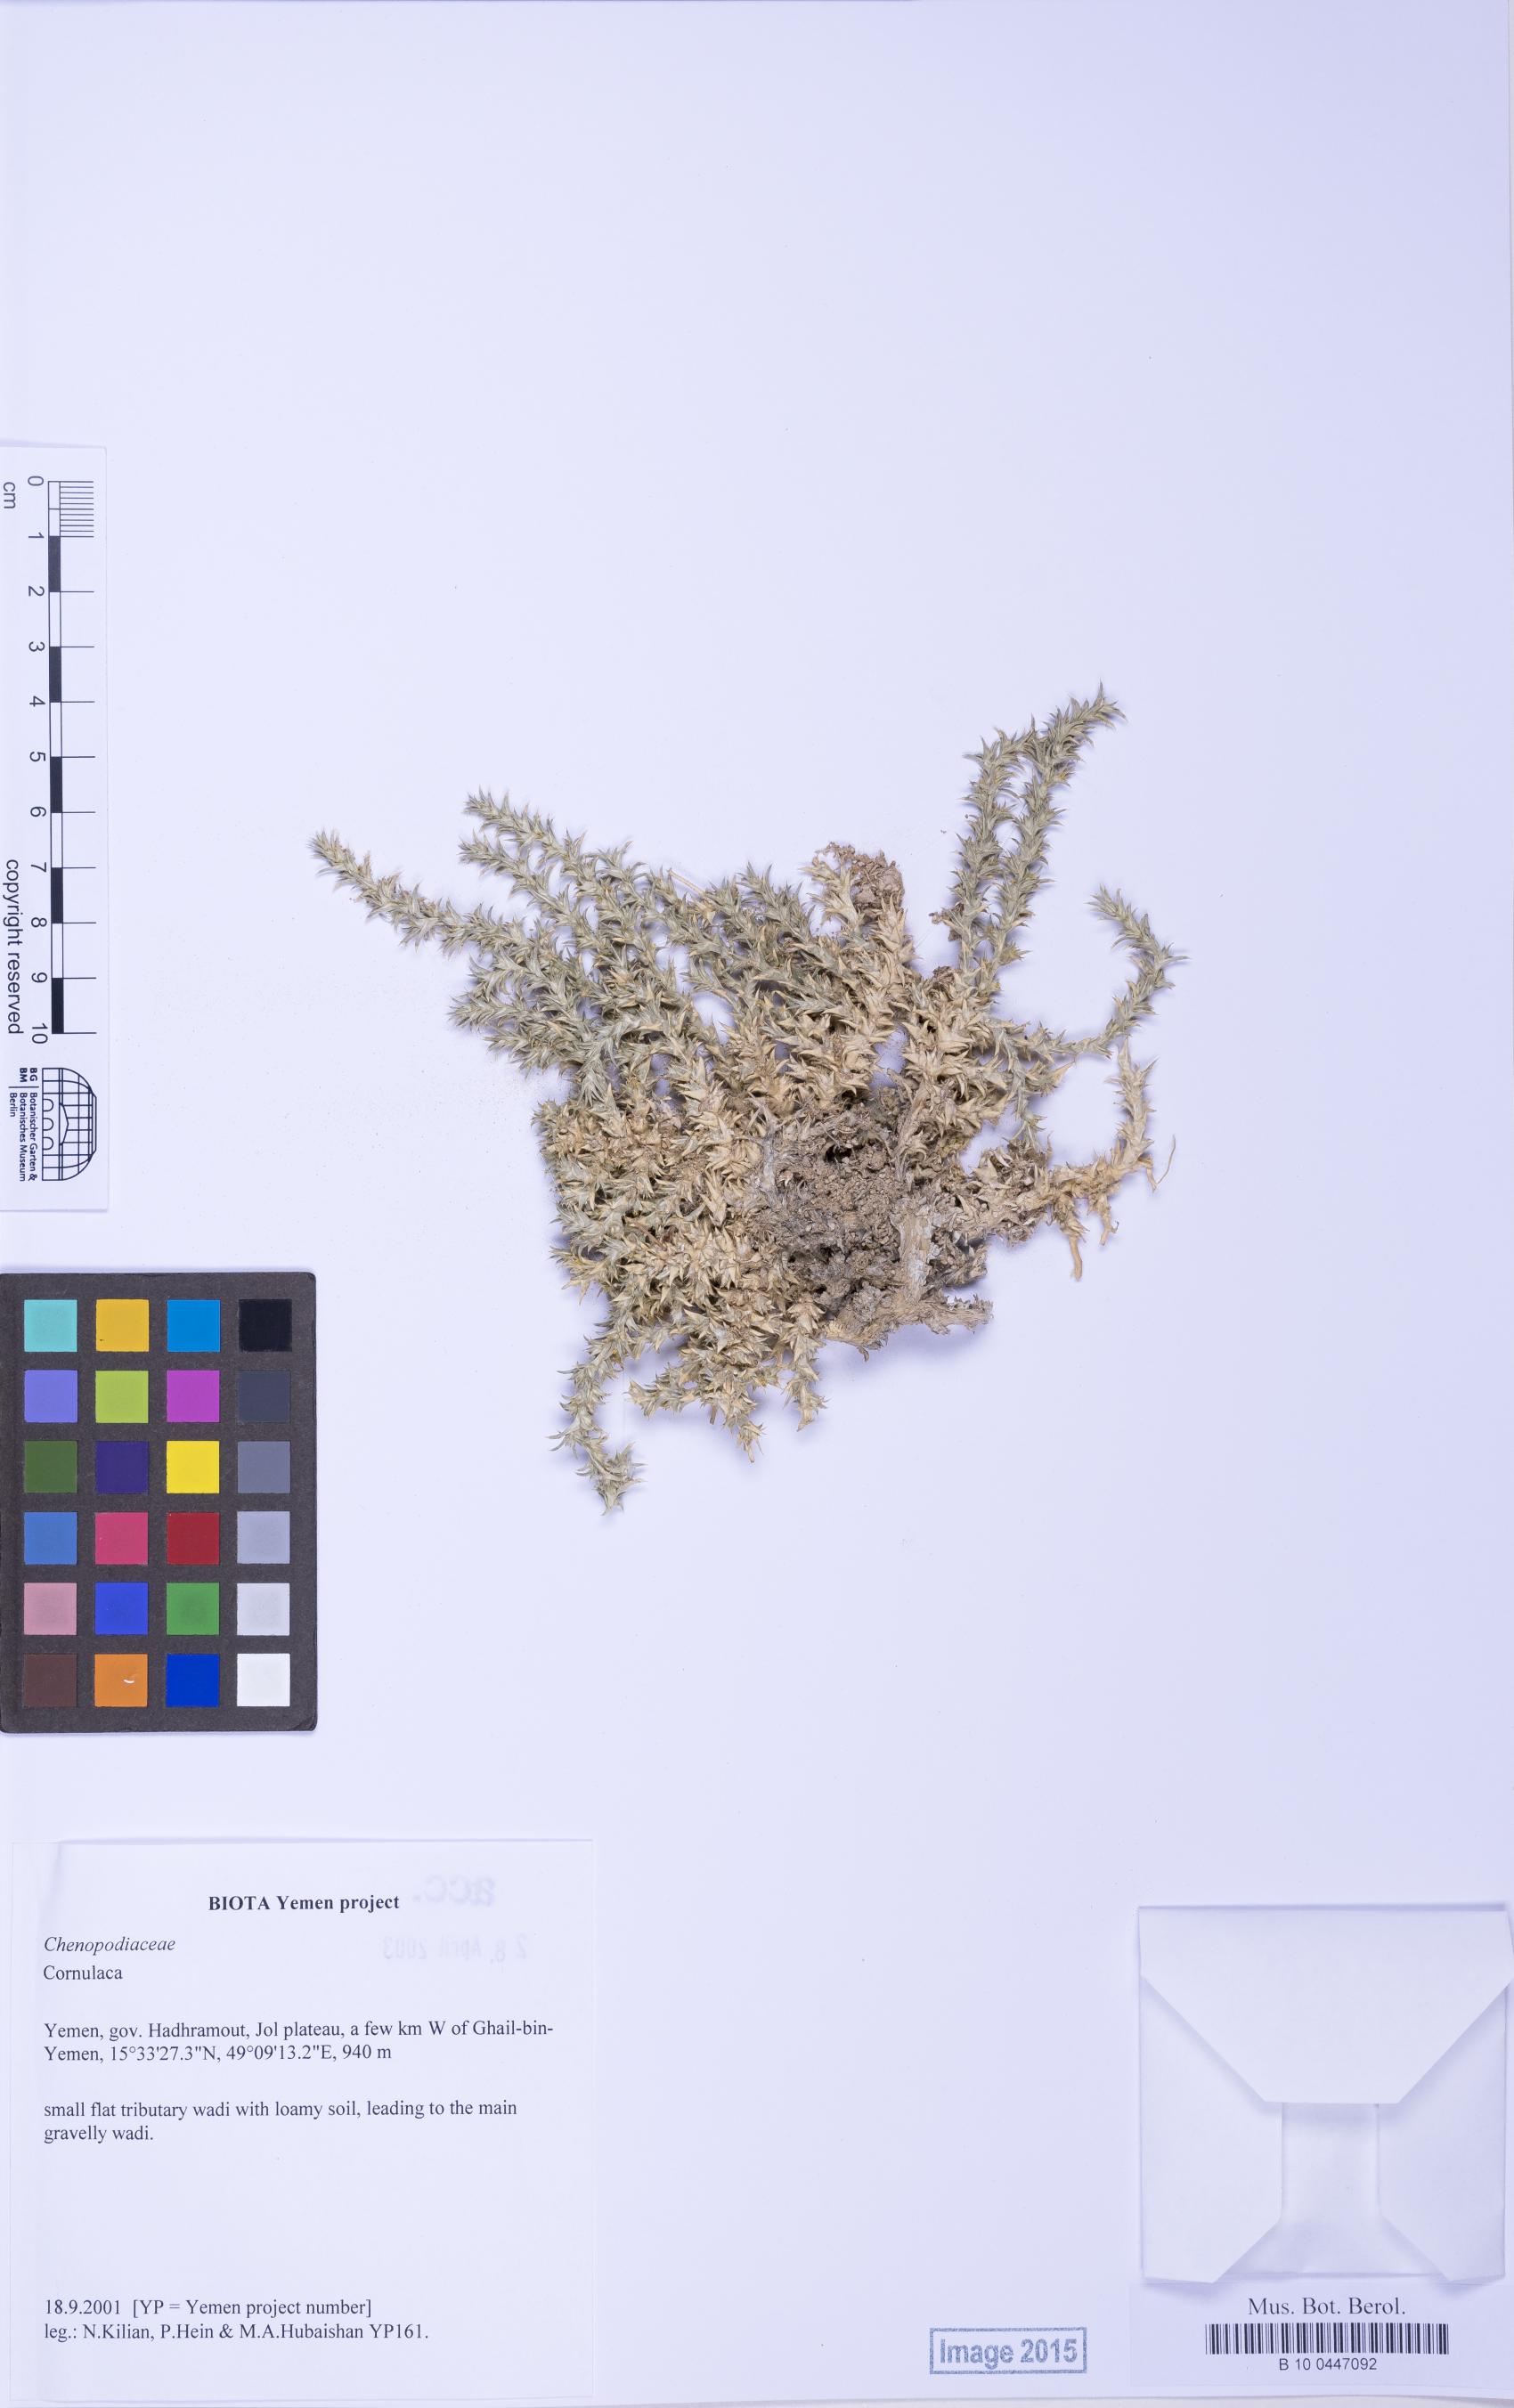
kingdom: Plantae
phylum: Tracheophyta
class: Magnoliopsida
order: Caryophyllales
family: Amaranthaceae
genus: Cornulaca
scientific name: Cornulaca
